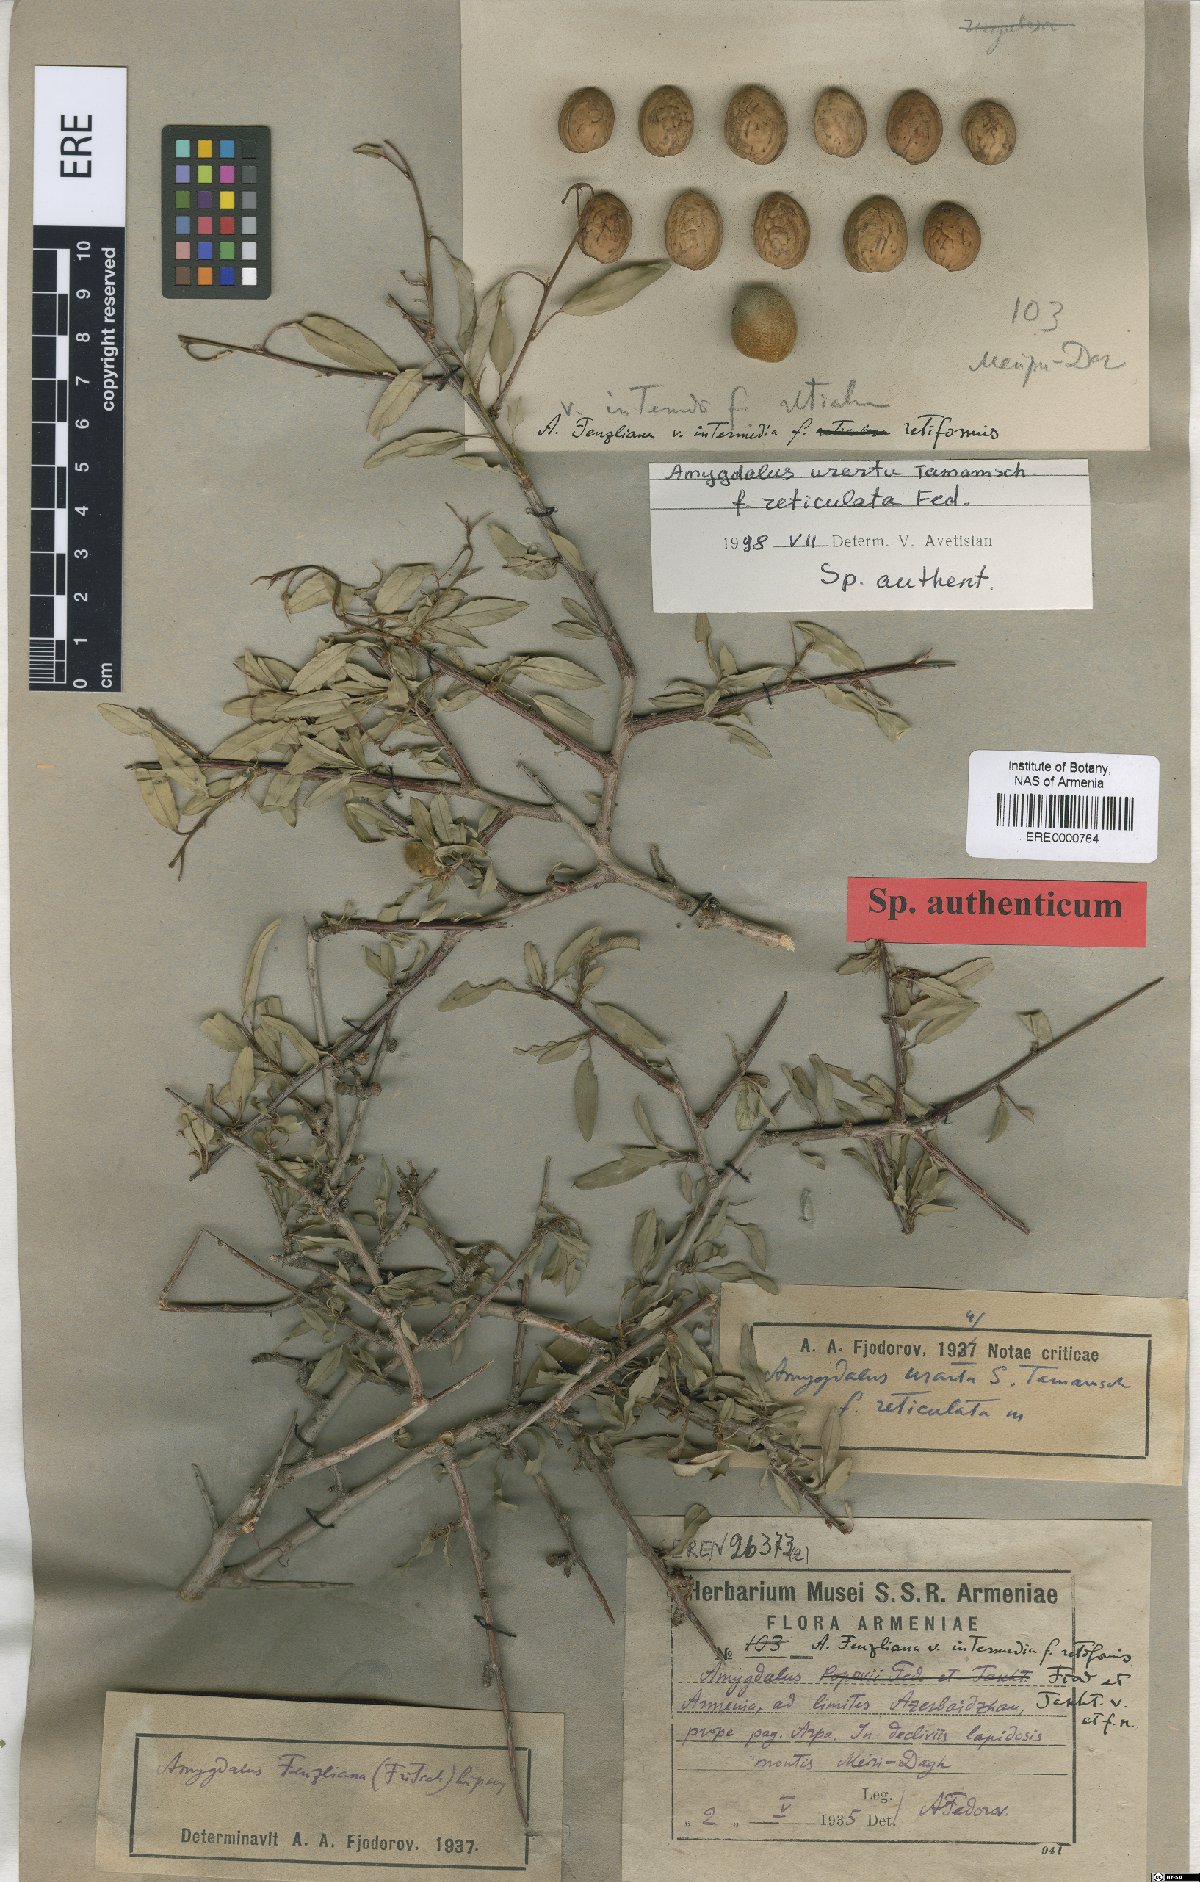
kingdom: Plantae
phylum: Tracheophyta
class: Magnoliopsida
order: Rosales
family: Rosaceae
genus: Prunus
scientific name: Prunus urartu
